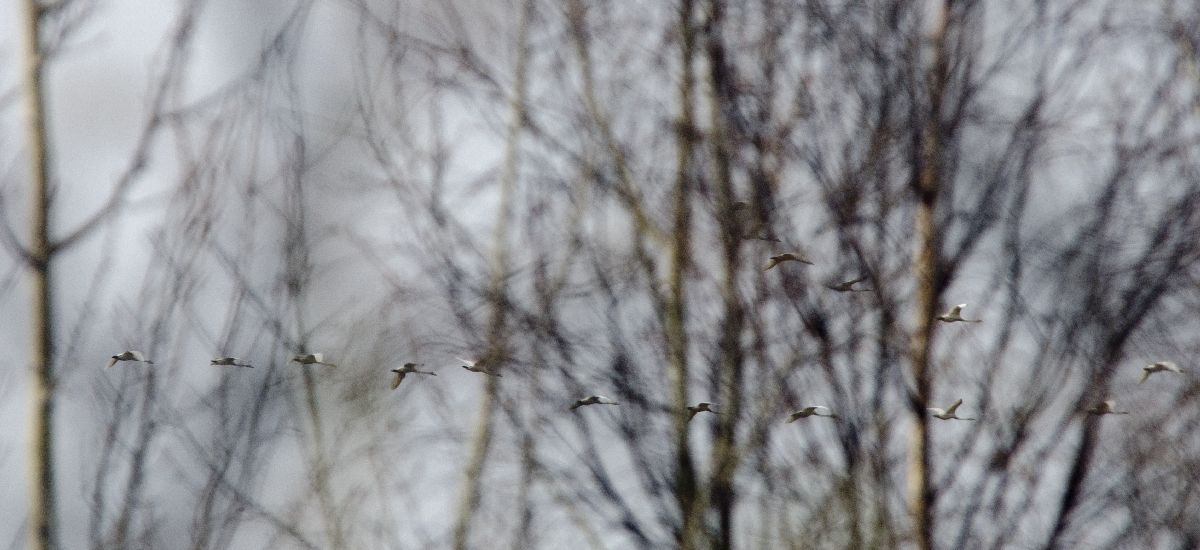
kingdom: Animalia
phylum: Chordata
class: Aves
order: Anseriformes
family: Anatidae
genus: Cygnus
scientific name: Cygnus cygnus
